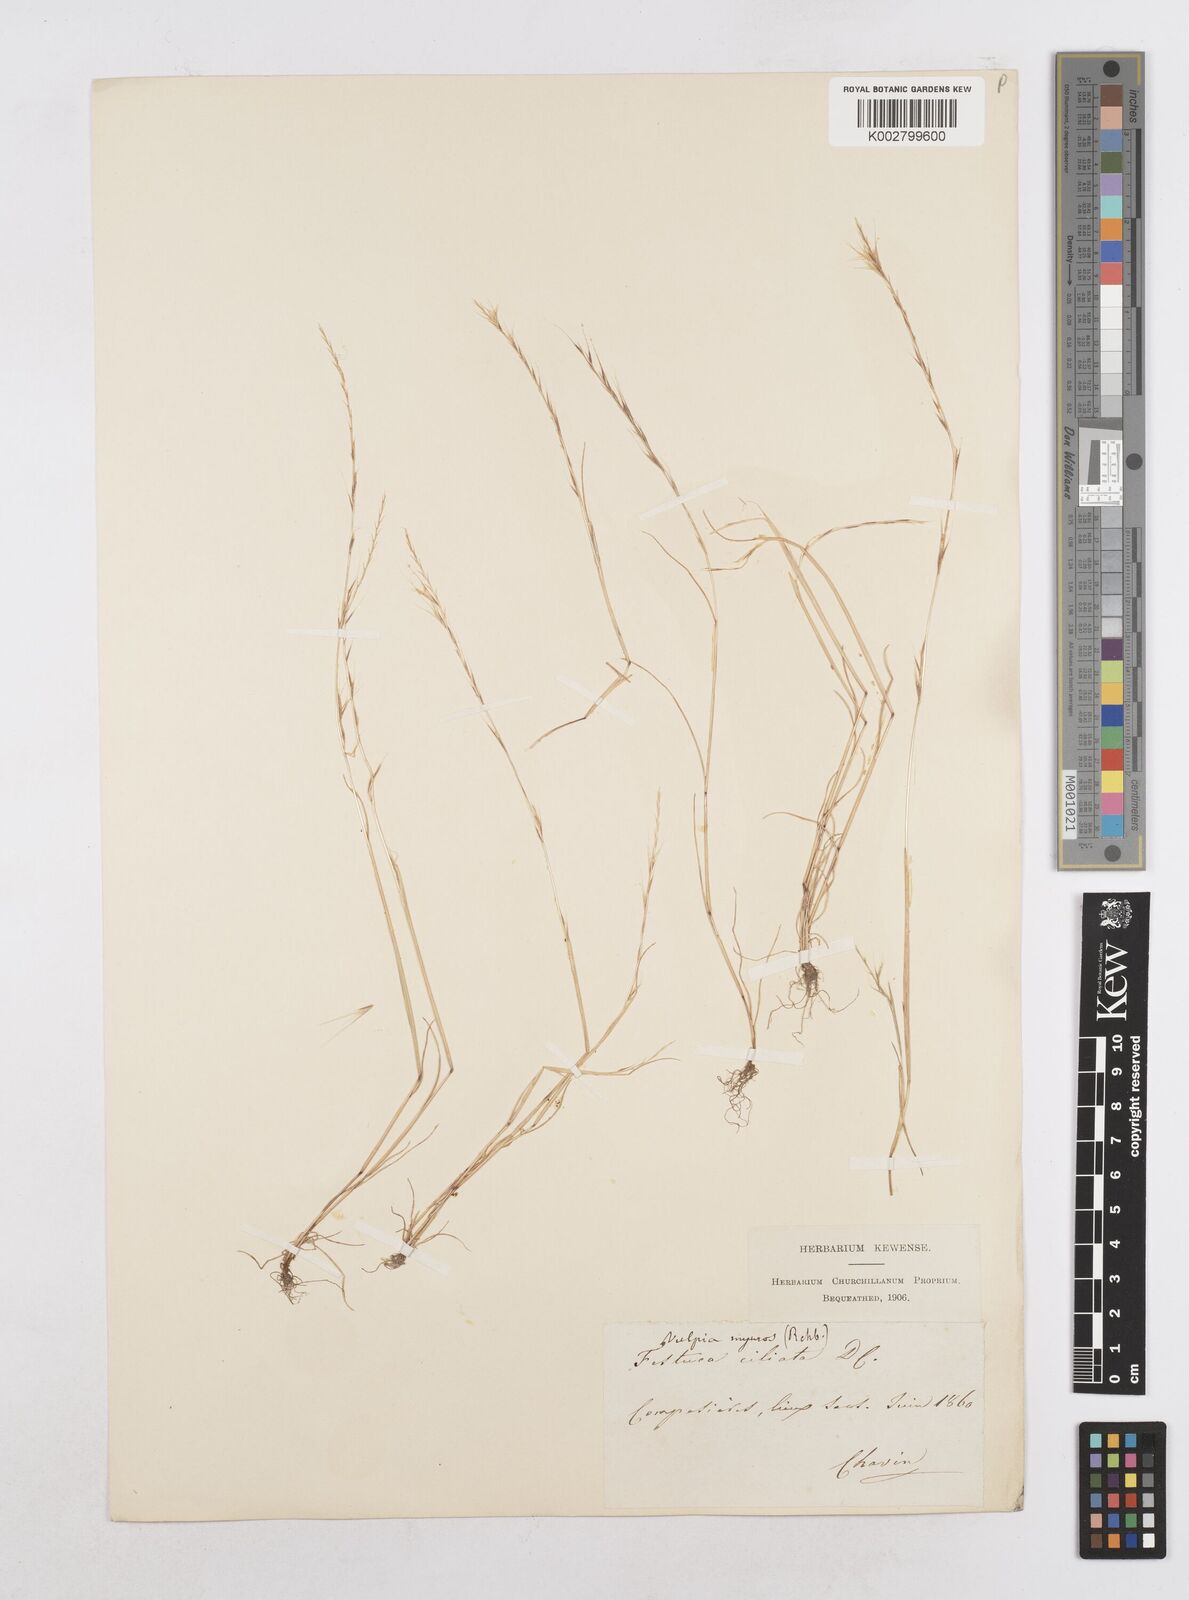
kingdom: Plantae
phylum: Tracheophyta
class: Liliopsida
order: Poales
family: Poaceae
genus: Festuca
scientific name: Festuca
